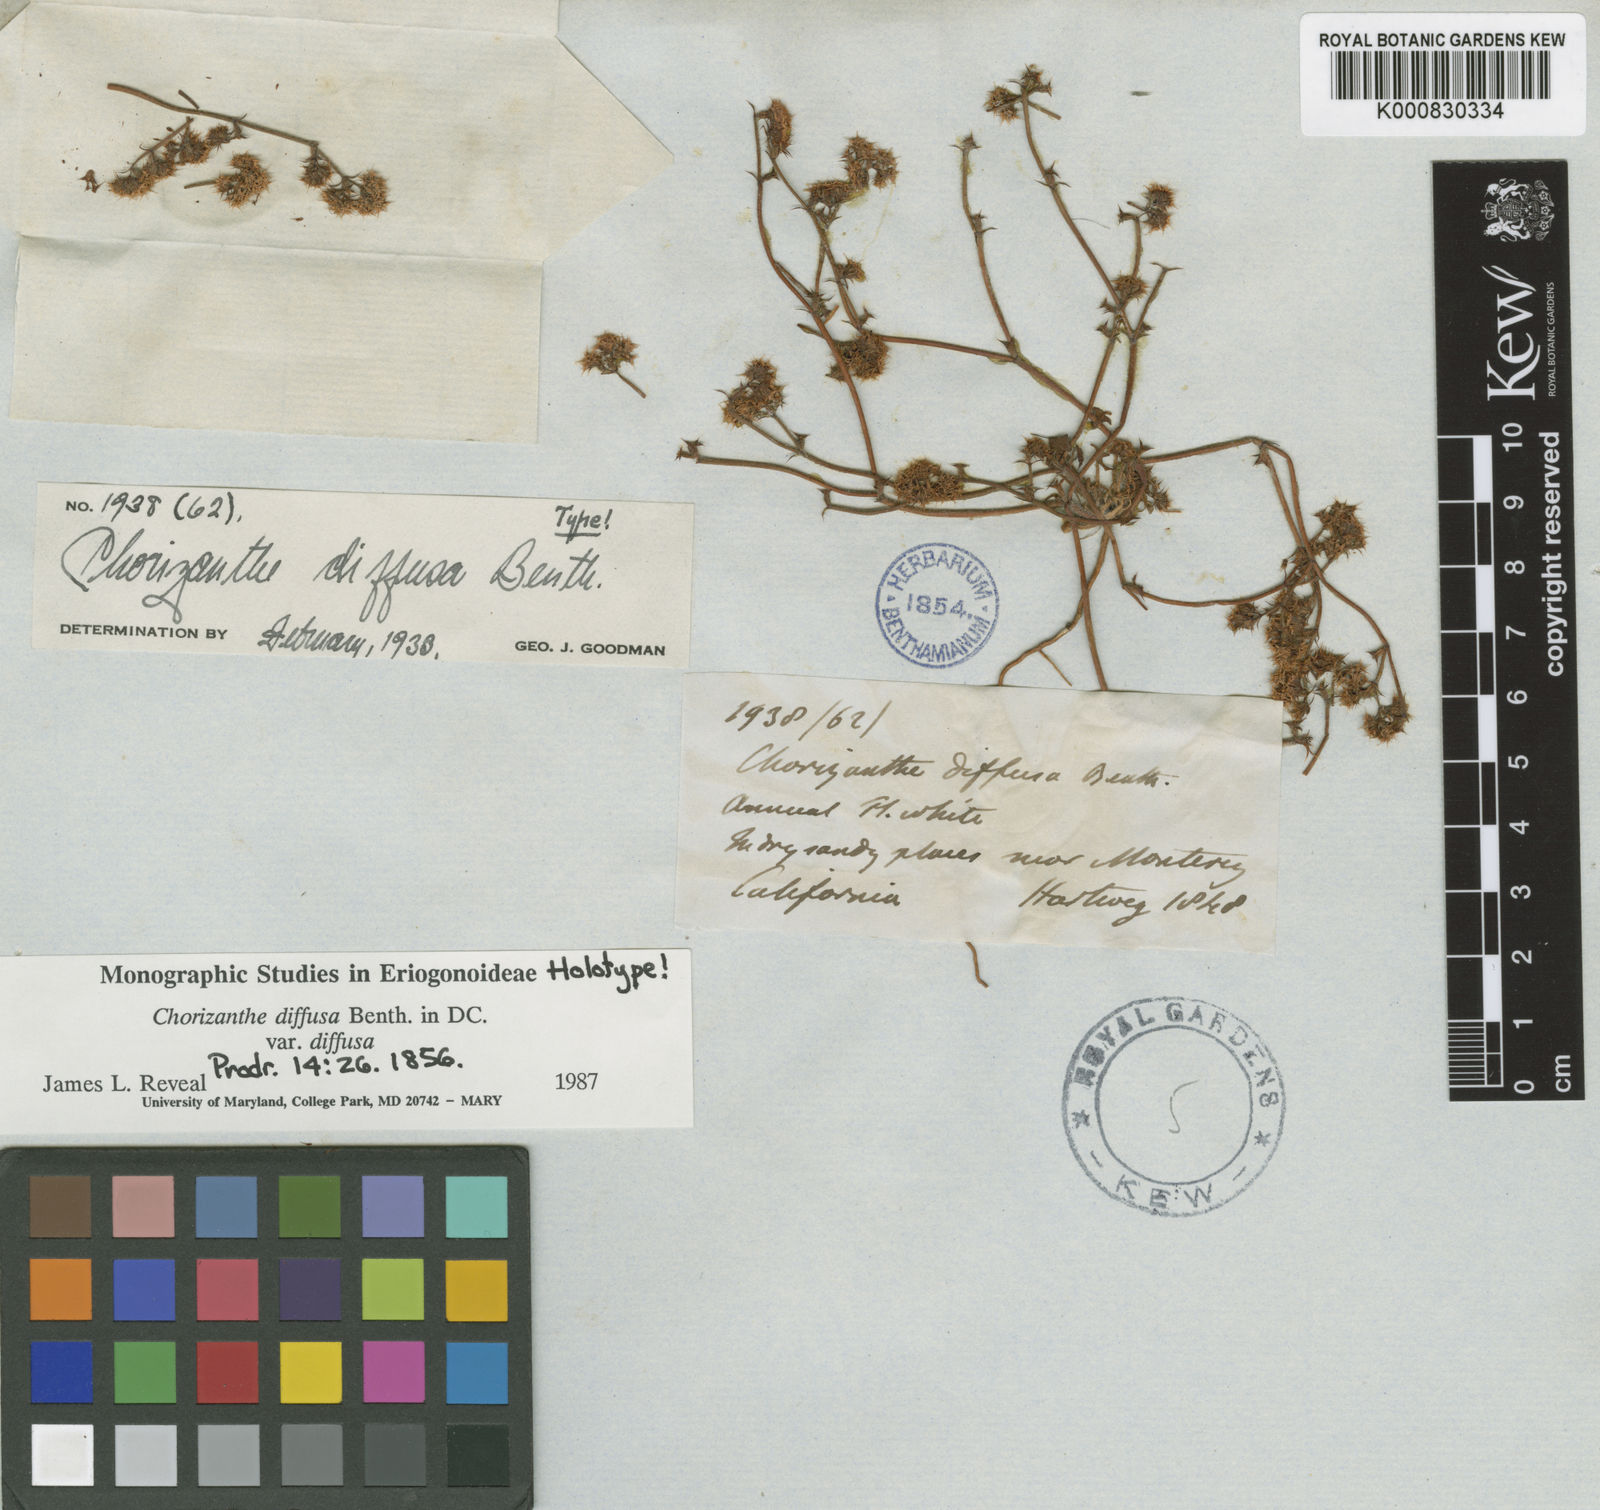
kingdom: Plantae
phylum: Tracheophyta
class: Magnoliopsida
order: Caryophyllales
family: Polygonaceae
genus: Chorizanthe
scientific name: Chorizanthe diffusa
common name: Diffuse spineflower
